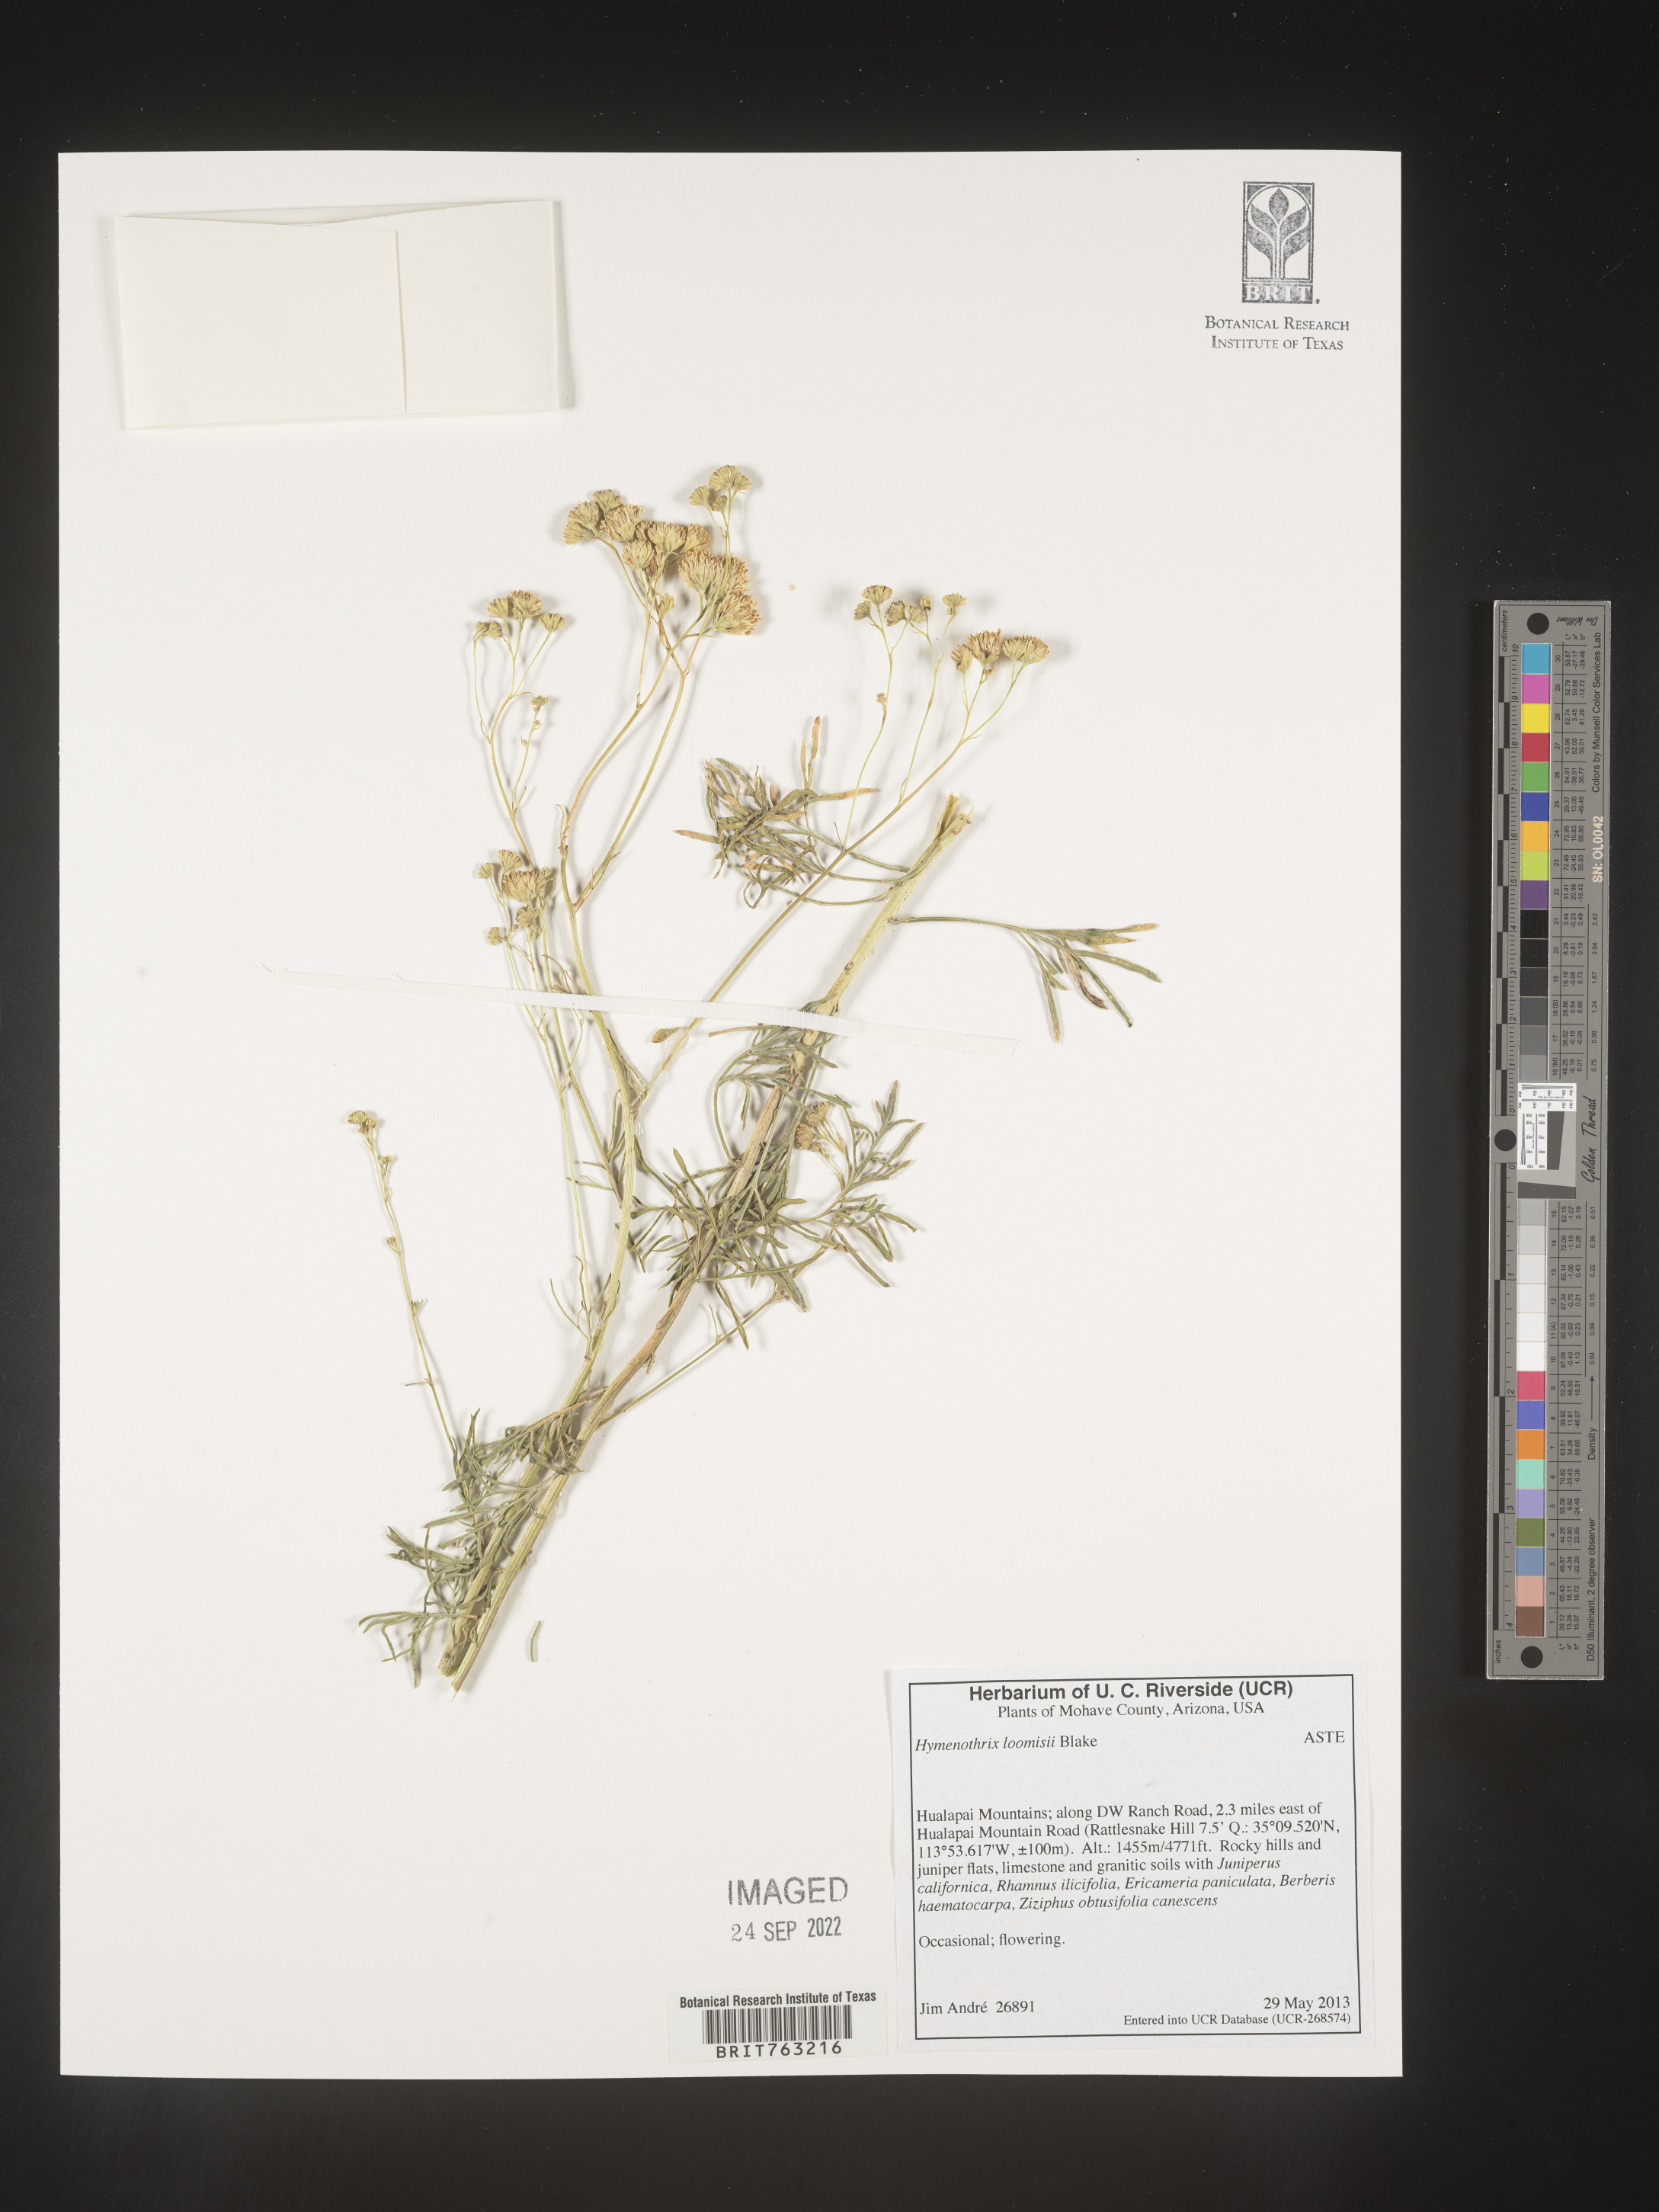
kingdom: Plantae
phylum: Tracheophyta
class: Magnoliopsida
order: Asterales
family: Asteraceae
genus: Hymenothrix
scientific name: Hymenothrix loomisii
